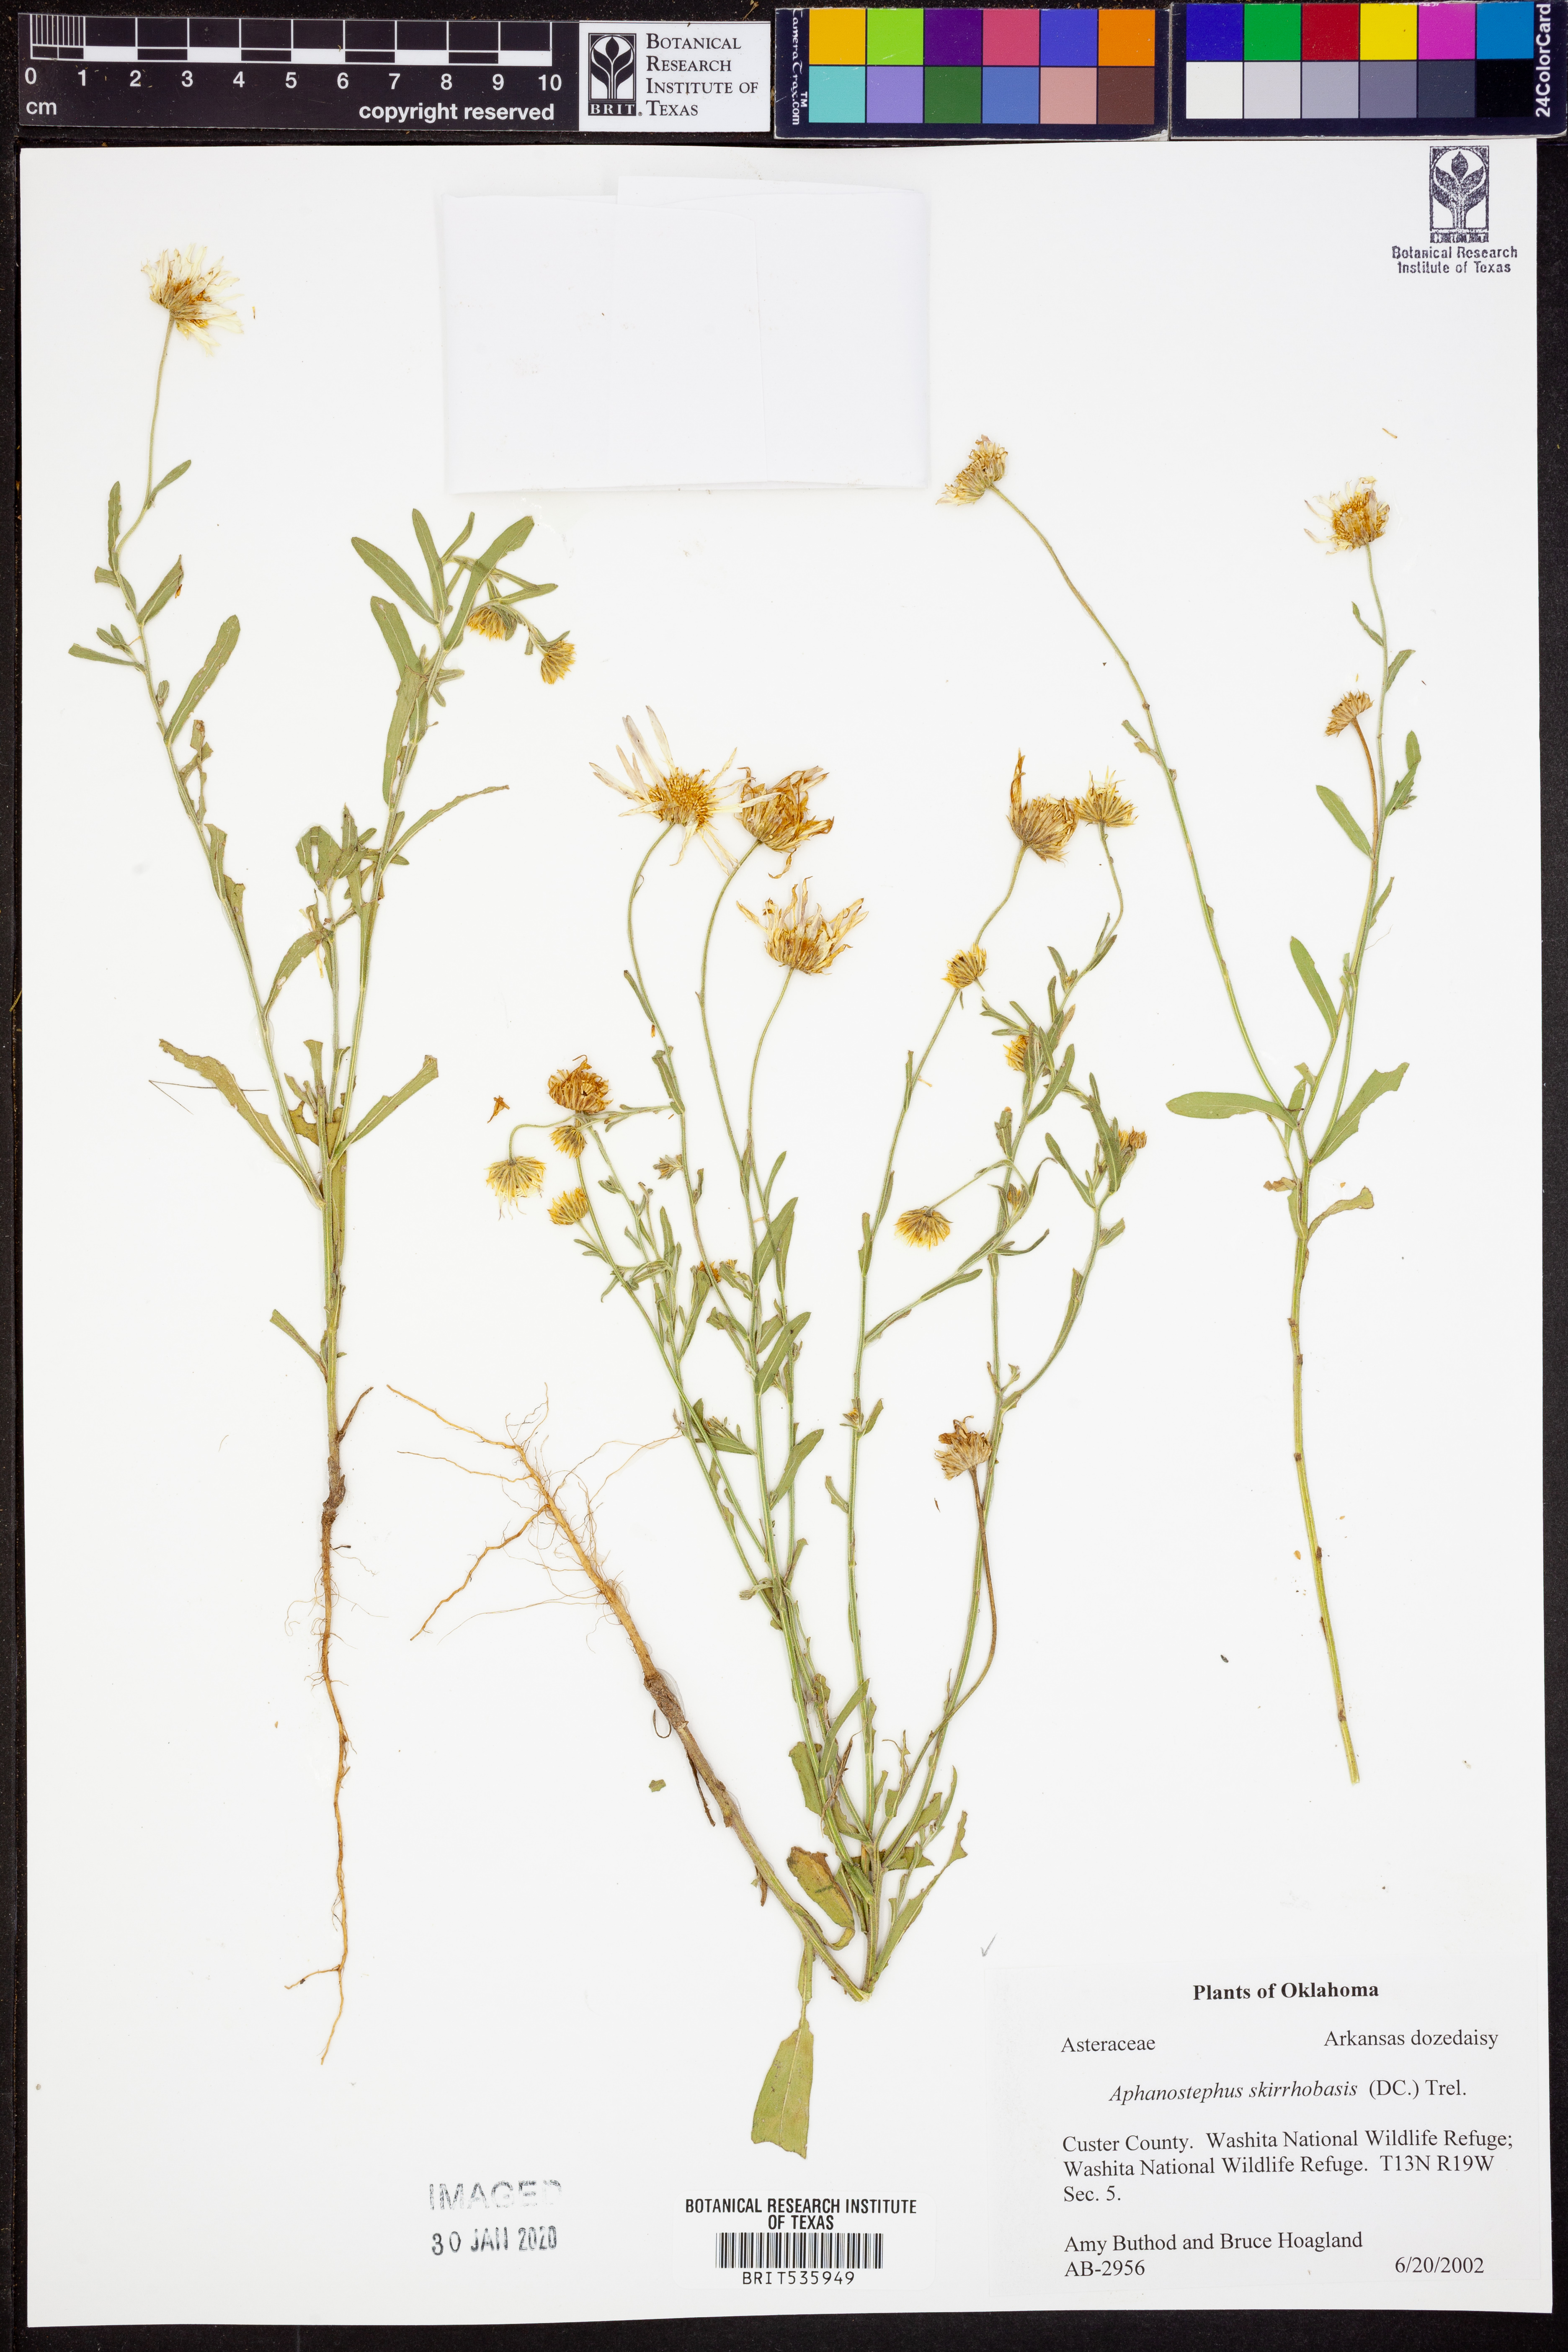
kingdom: Plantae
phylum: Tracheophyta
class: Magnoliopsida
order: Asterales
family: Asteraceae
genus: Aphanostephus
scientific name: Aphanostephus skirrhobasis
